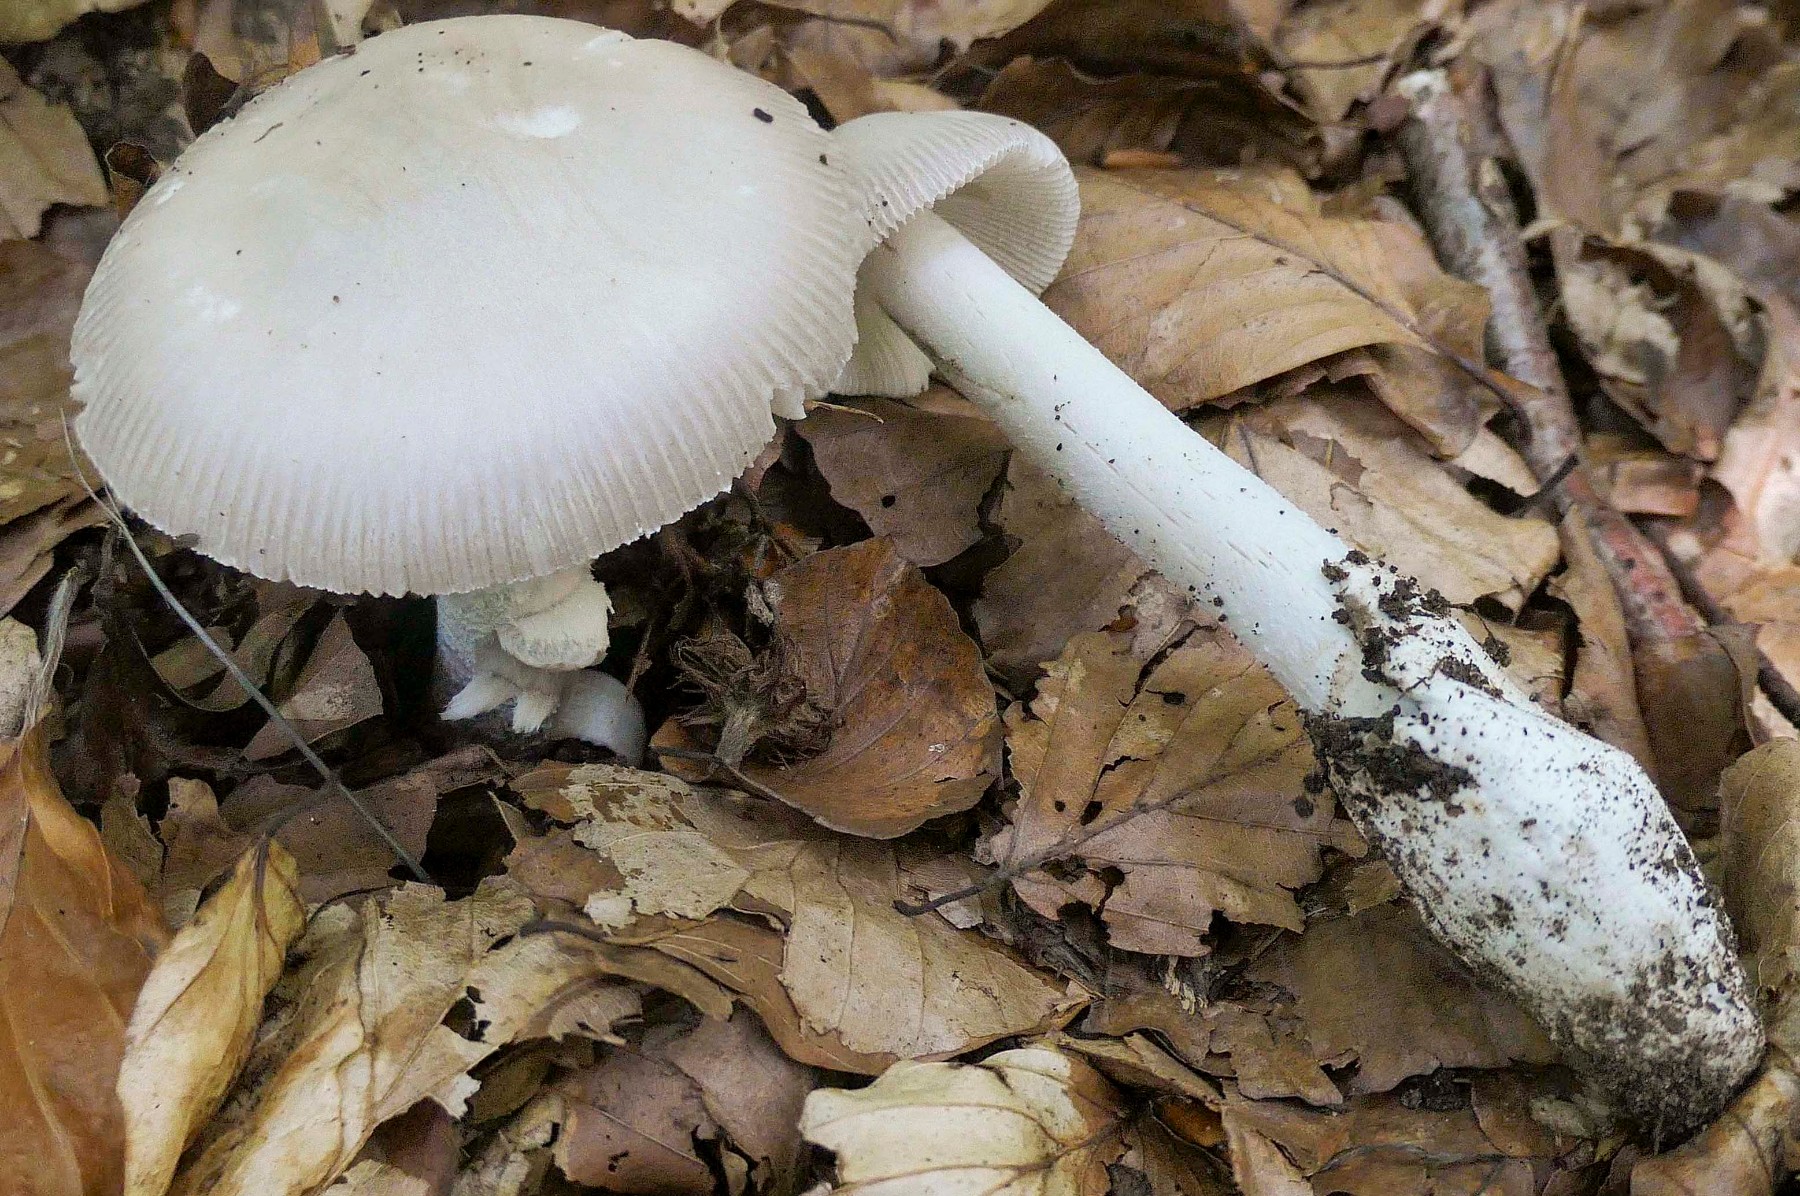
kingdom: Fungi
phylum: Basidiomycota
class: Agaricomycetes
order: Agaricales
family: Amanitaceae
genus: Amanita
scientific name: Amanita vaginata
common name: grå kam-fluesvamp
